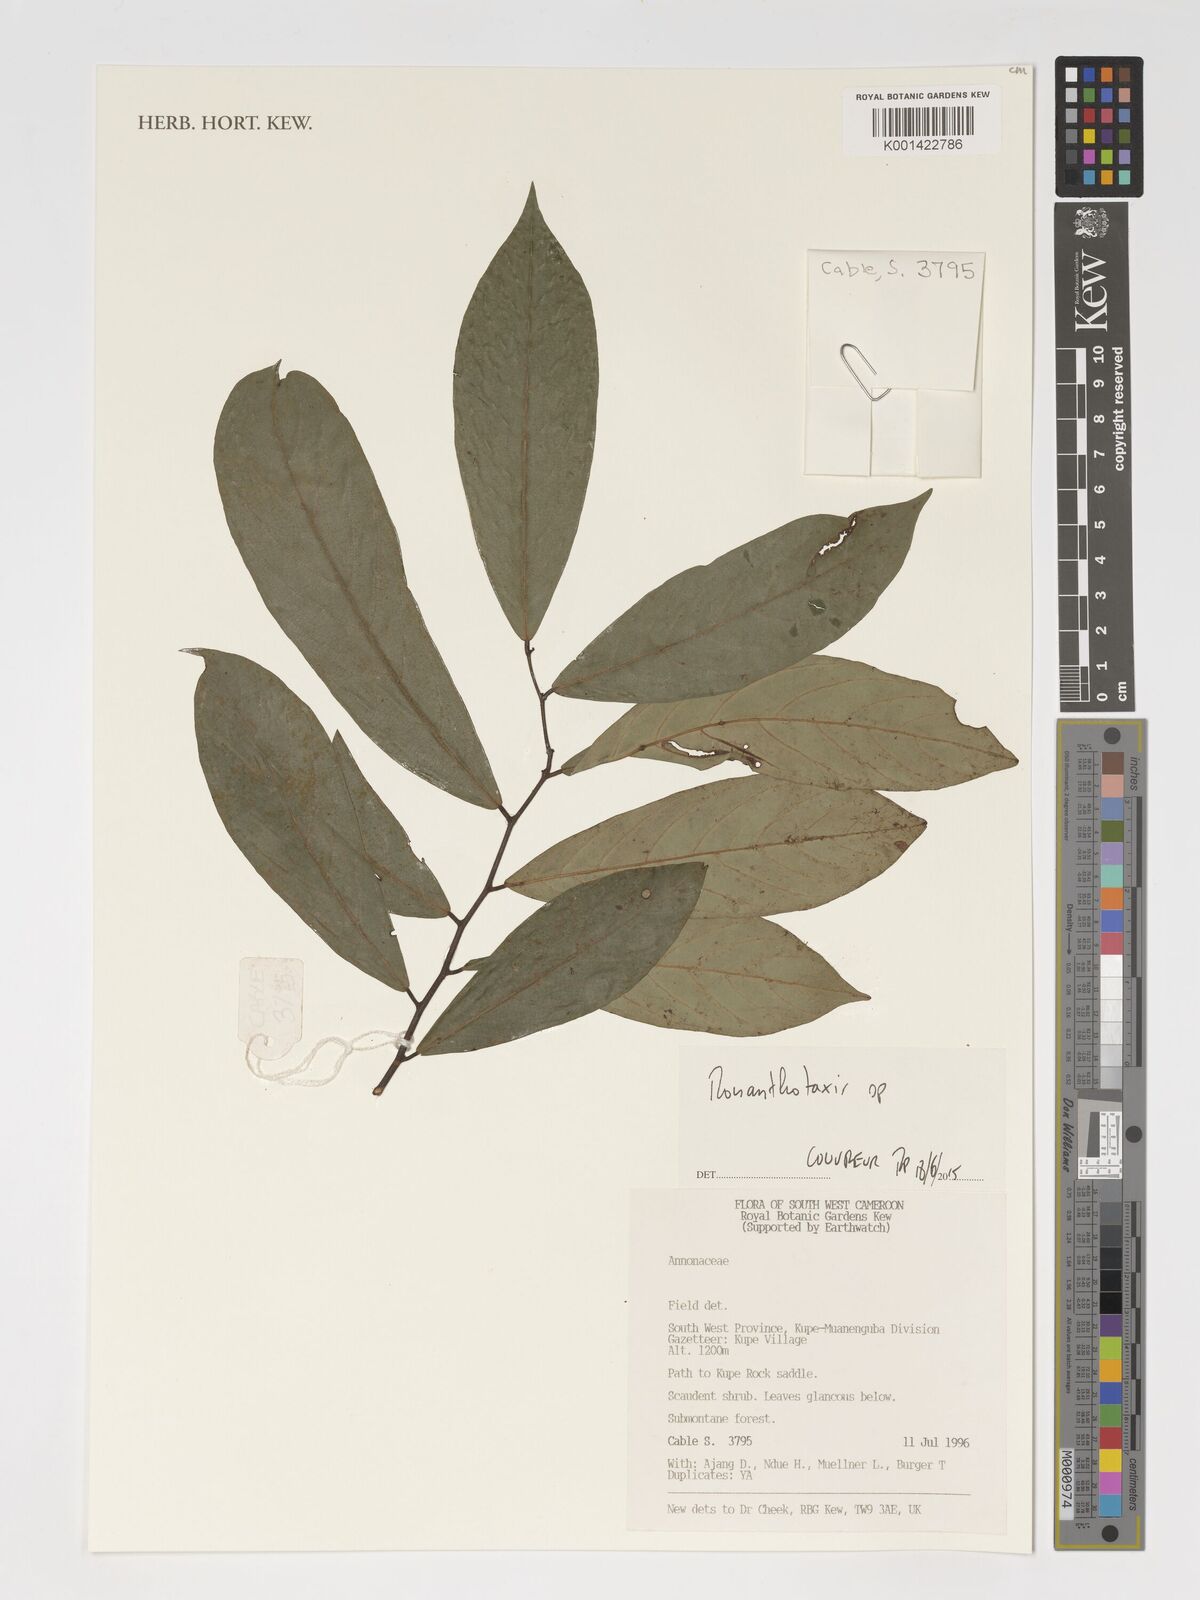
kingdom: Plantae
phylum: Tracheophyta
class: Magnoliopsida
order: Magnoliales
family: Annonaceae
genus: Monanthotaxis
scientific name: Monanthotaxis
